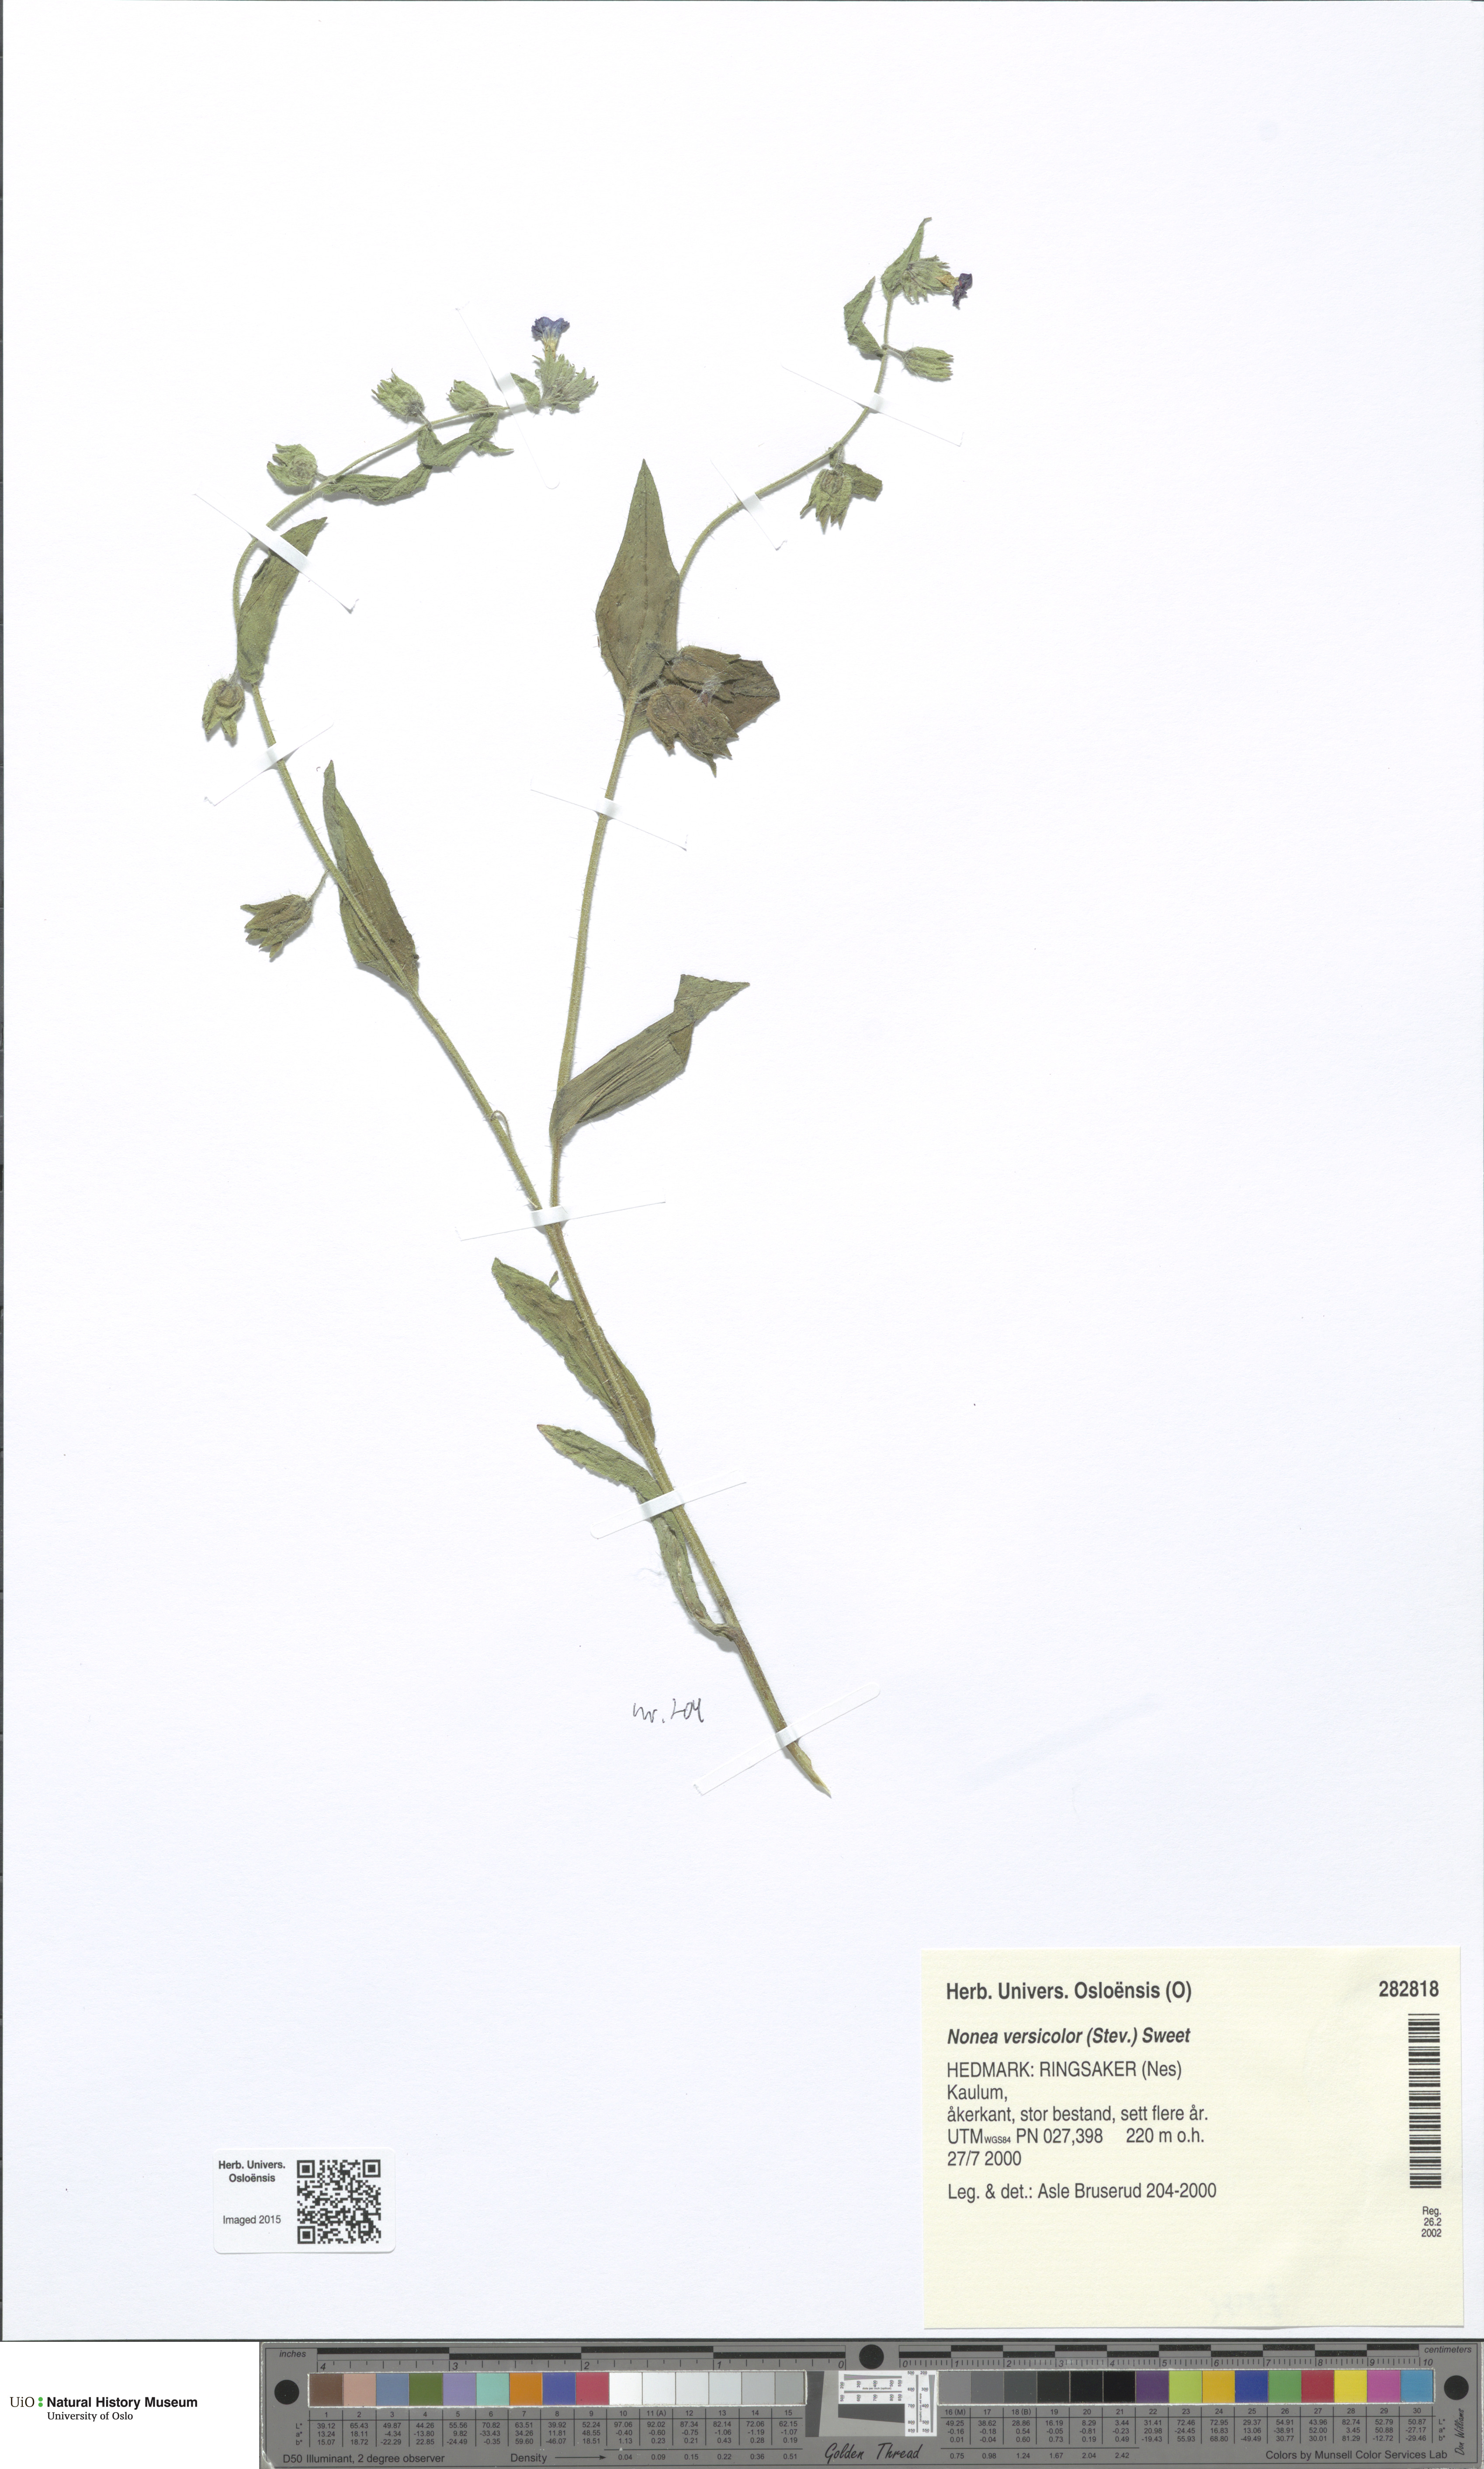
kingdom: Plantae
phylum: Tracheophyta
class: Magnoliopsida
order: Boraginales
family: Boraginaceae
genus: Nonea
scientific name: Nonea versicolor
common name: Varied monkswort
